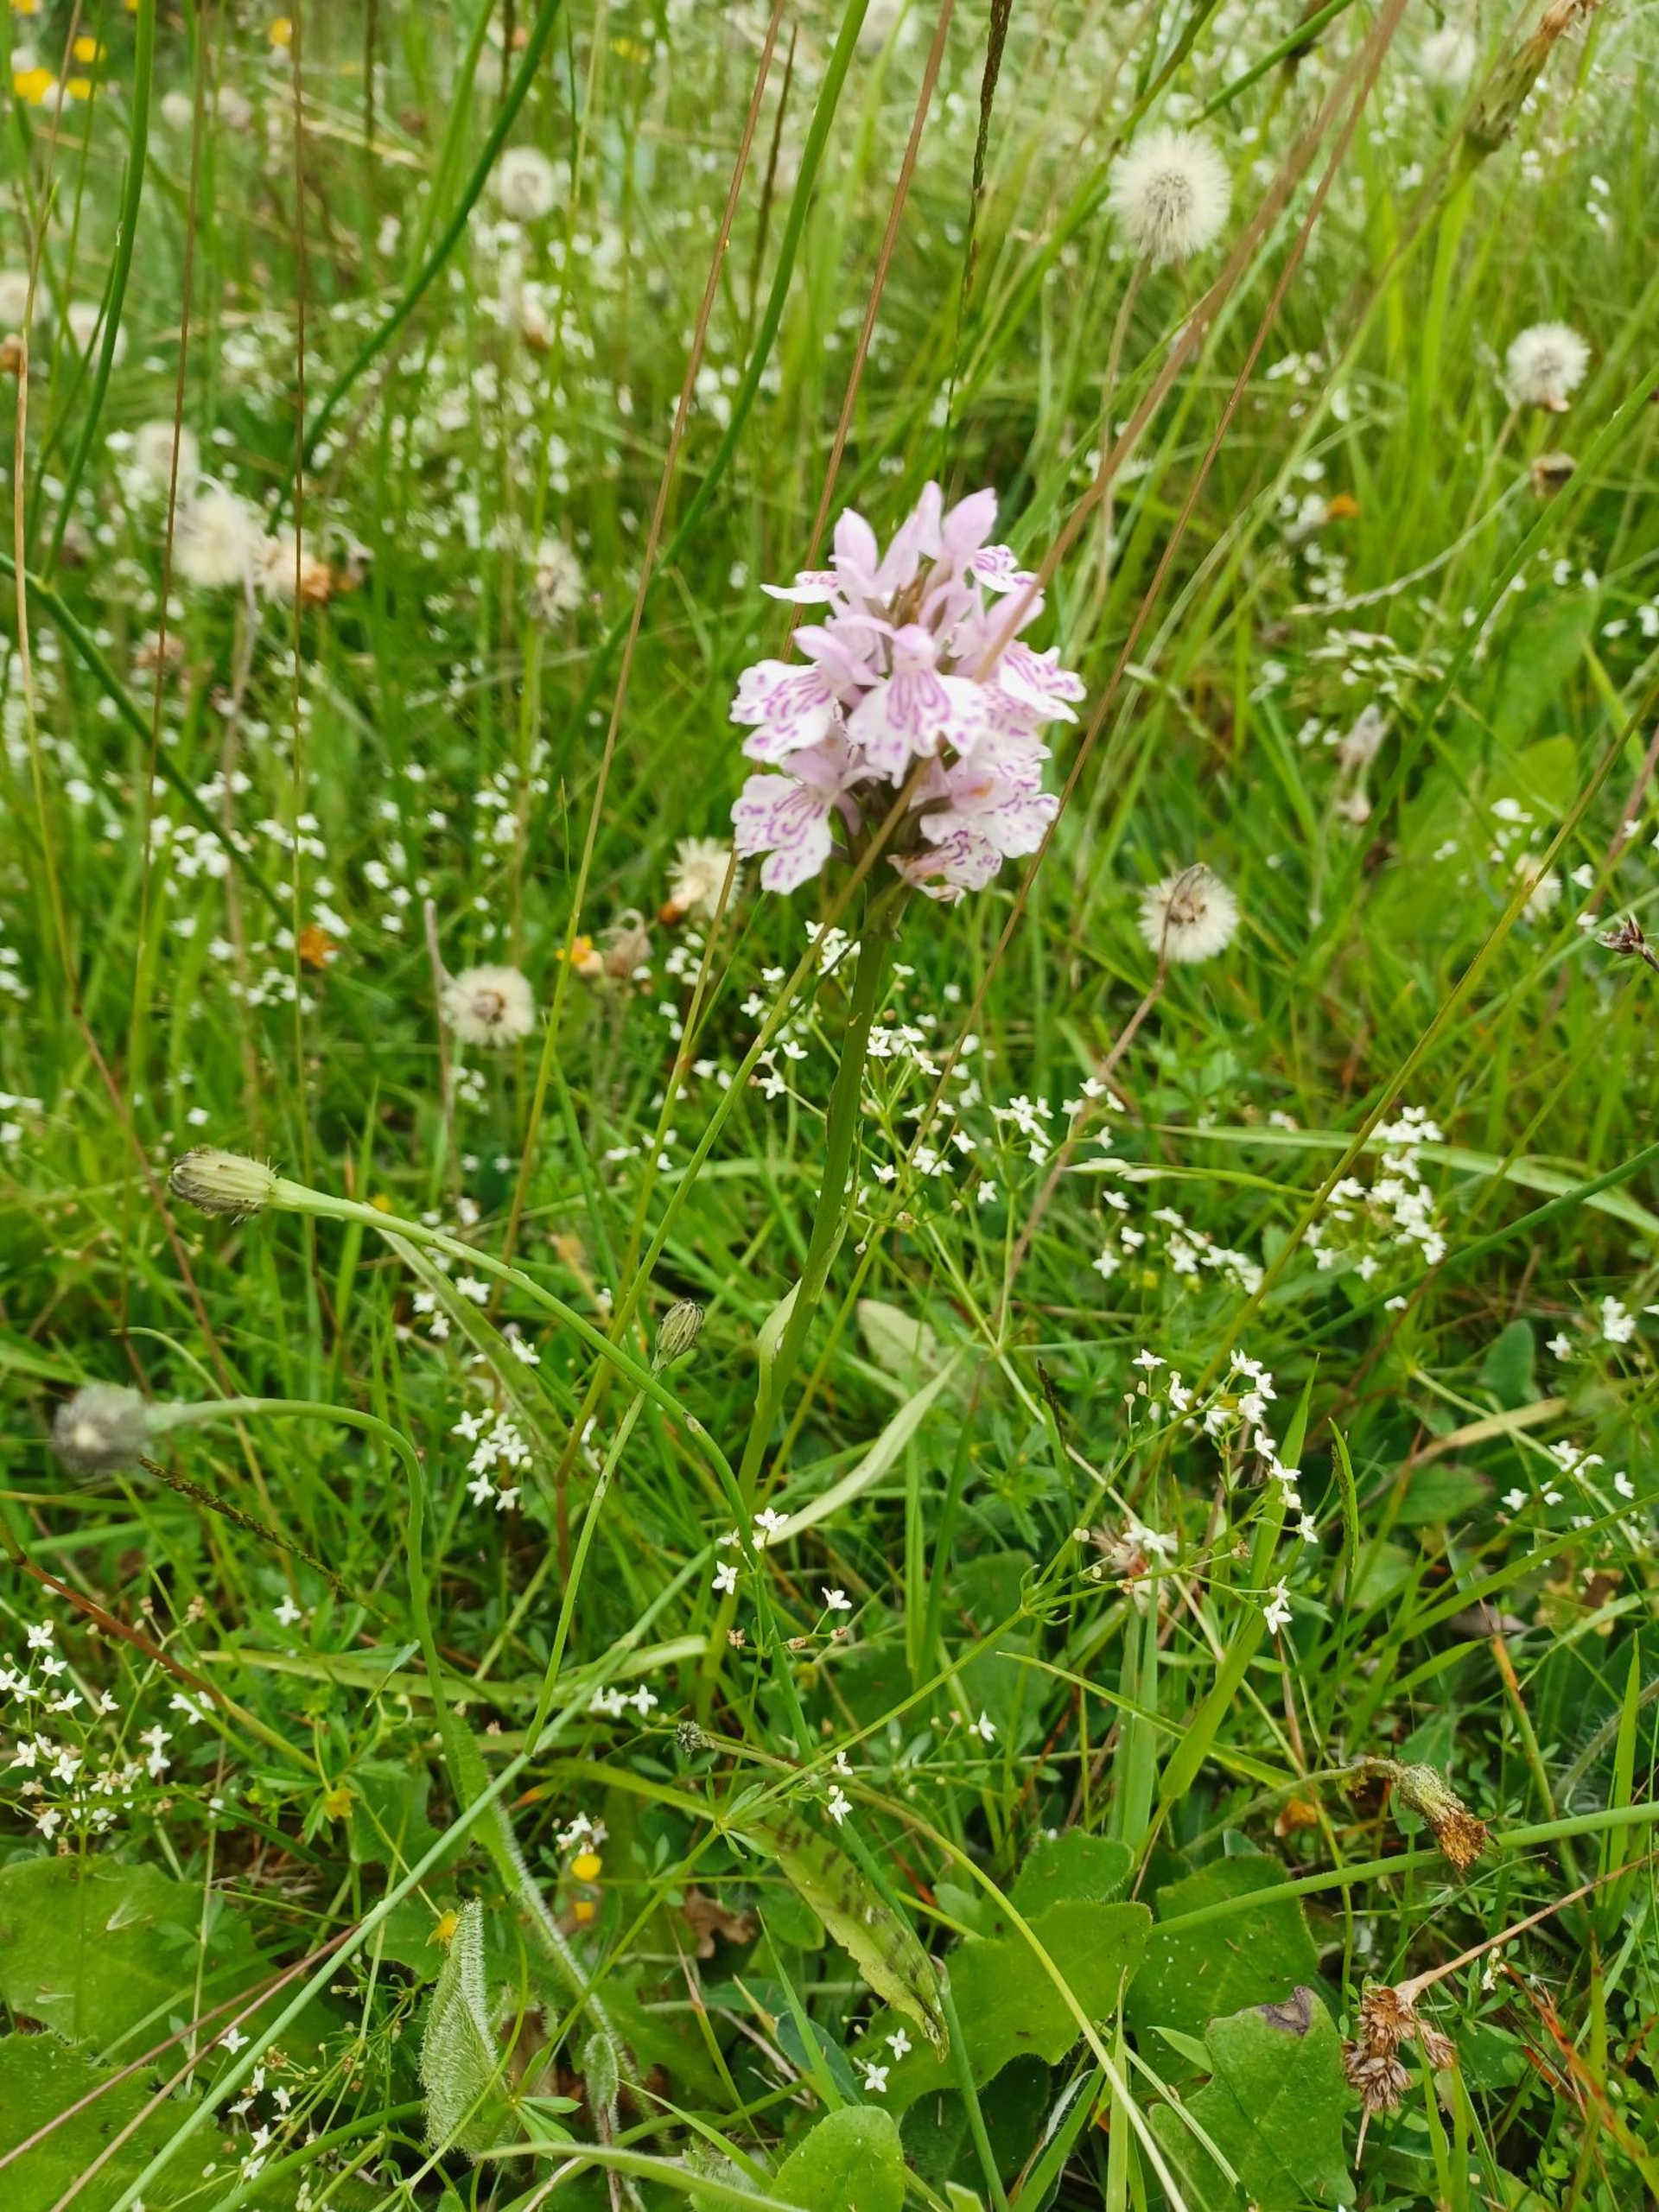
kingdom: Plantae
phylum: Tracheophyta
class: Liliopsida
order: Asparagales
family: Orchidaceae
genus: Dactylorhiza
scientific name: Dactylorhiza maculata
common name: Plettet gøgeurt
